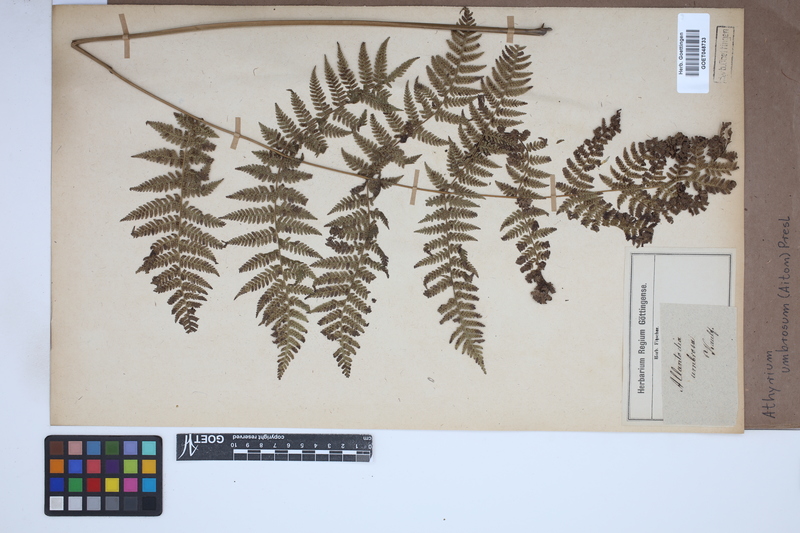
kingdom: Plantae
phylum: Tracheophyta
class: Polypodiopsida
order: Polypodiales
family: Athyriaceae
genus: Diplazium
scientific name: Diplazium caudatum
